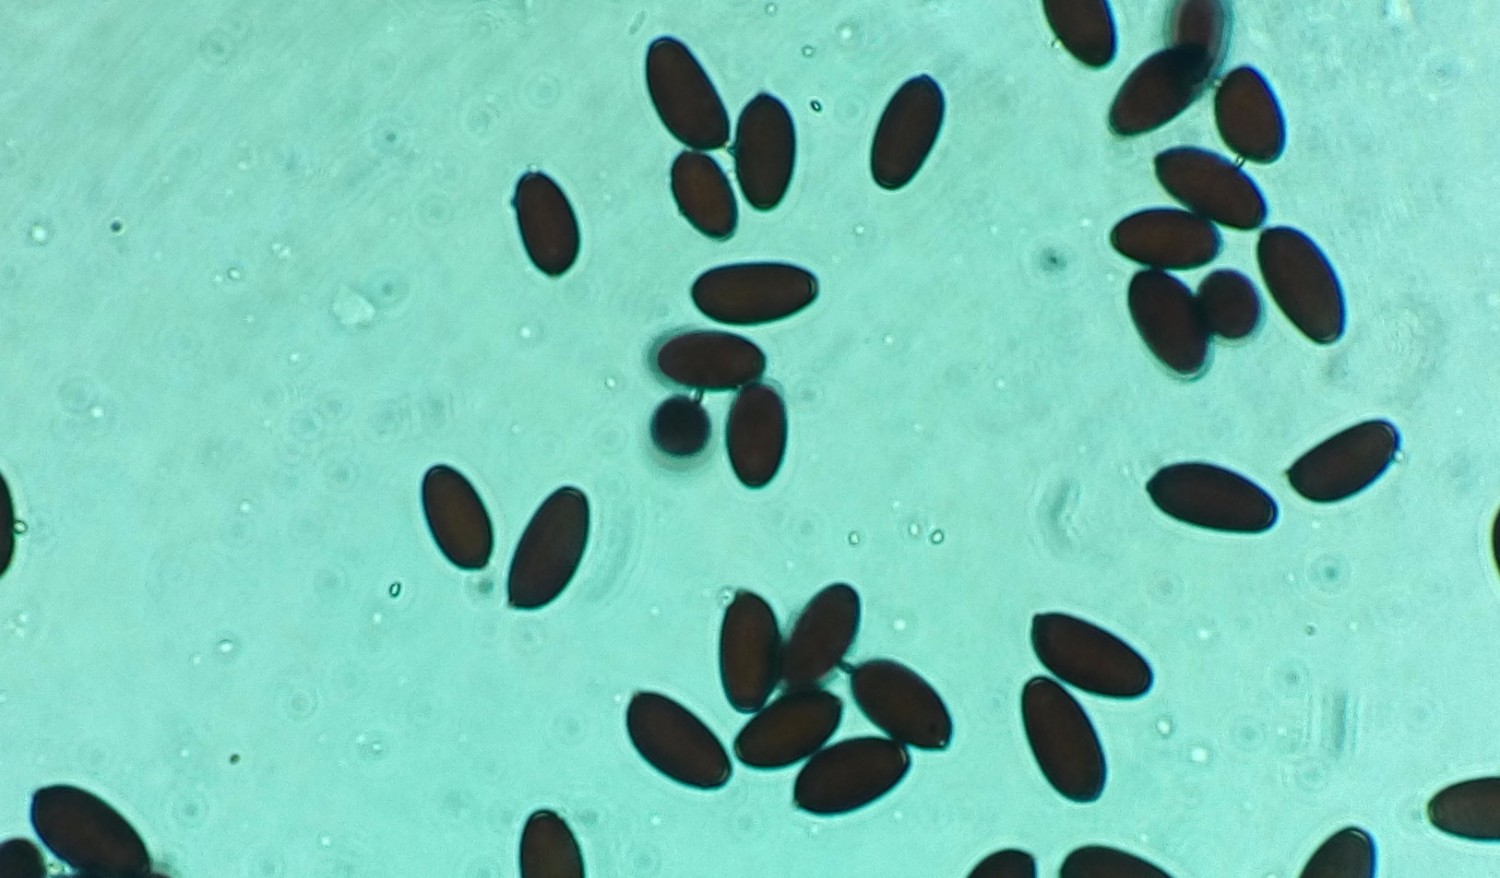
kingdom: Fungi
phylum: Basidiomycota
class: Agaricomycetes
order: Agaricales
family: Psathyrellaceae
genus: Coprinopsis
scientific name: Coprinopsis lagopus
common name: dunstokket blækhat
